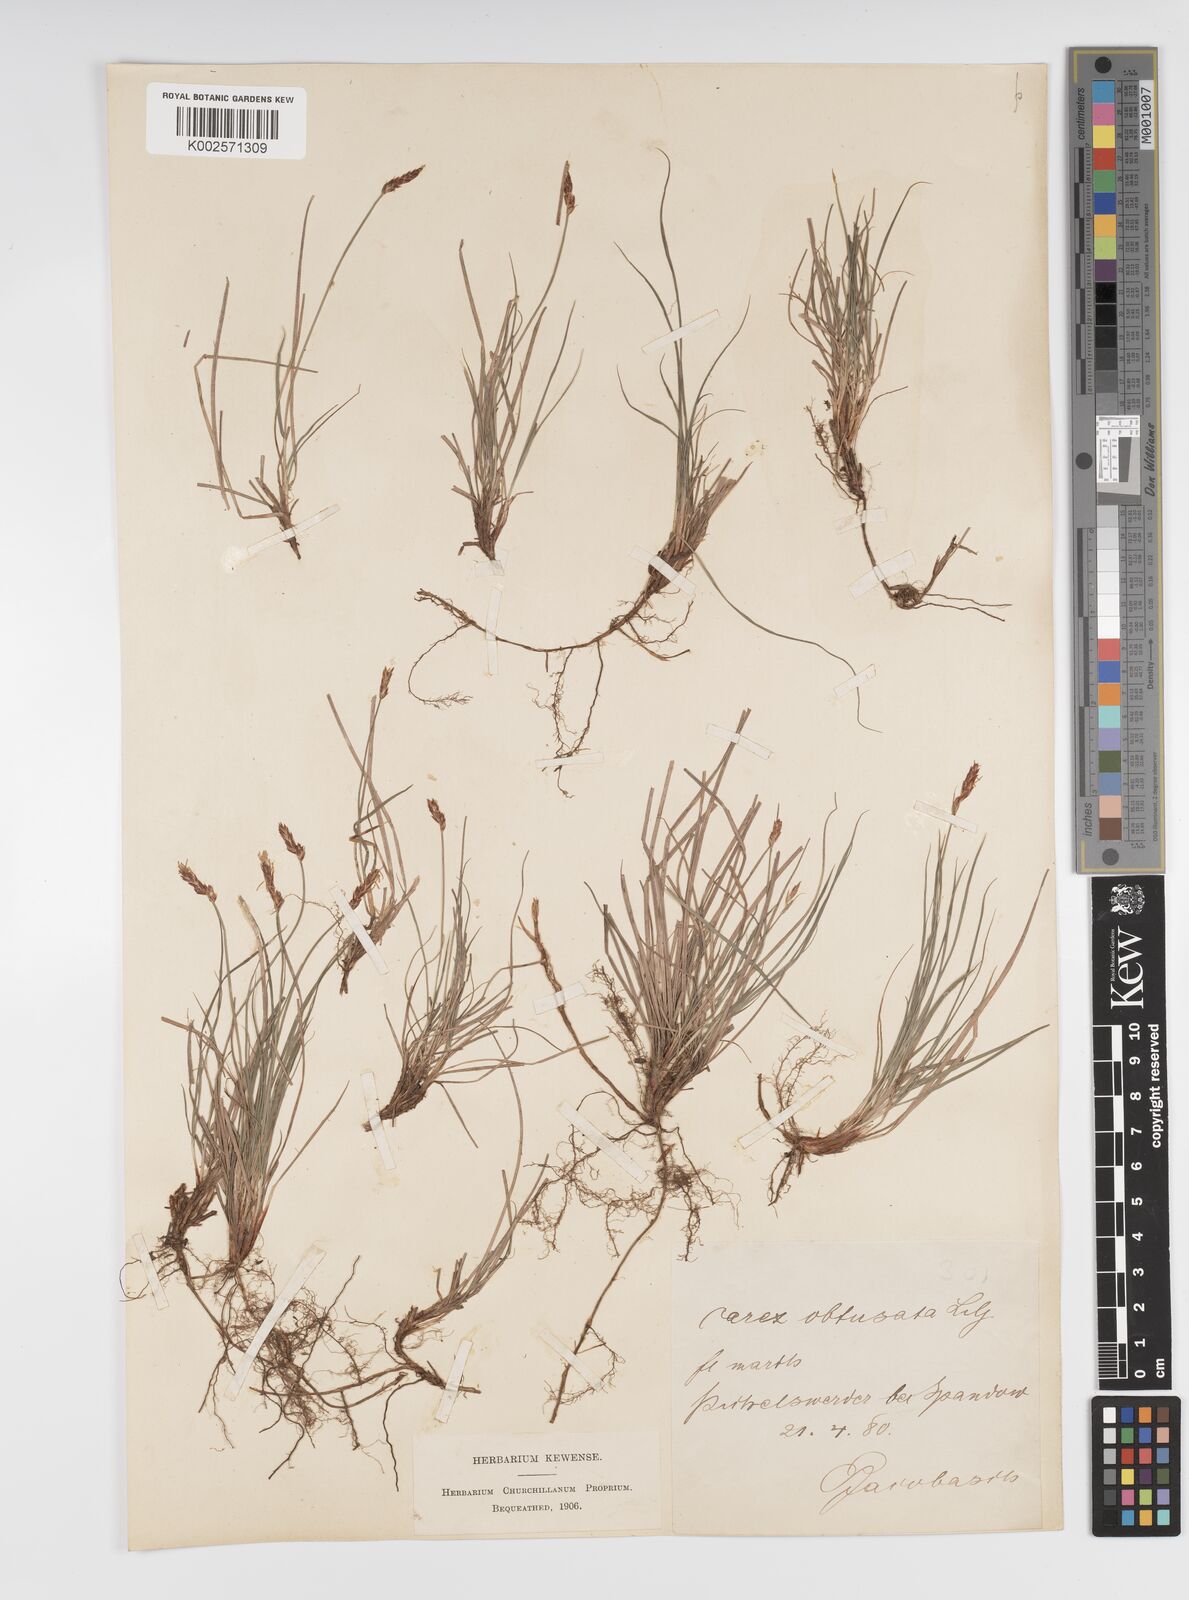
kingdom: Plantae
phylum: Tracheophyta
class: Liliopsida
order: Poales
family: Cyperaceae
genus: Carex
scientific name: Carex supina
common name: Lying-back sedge
